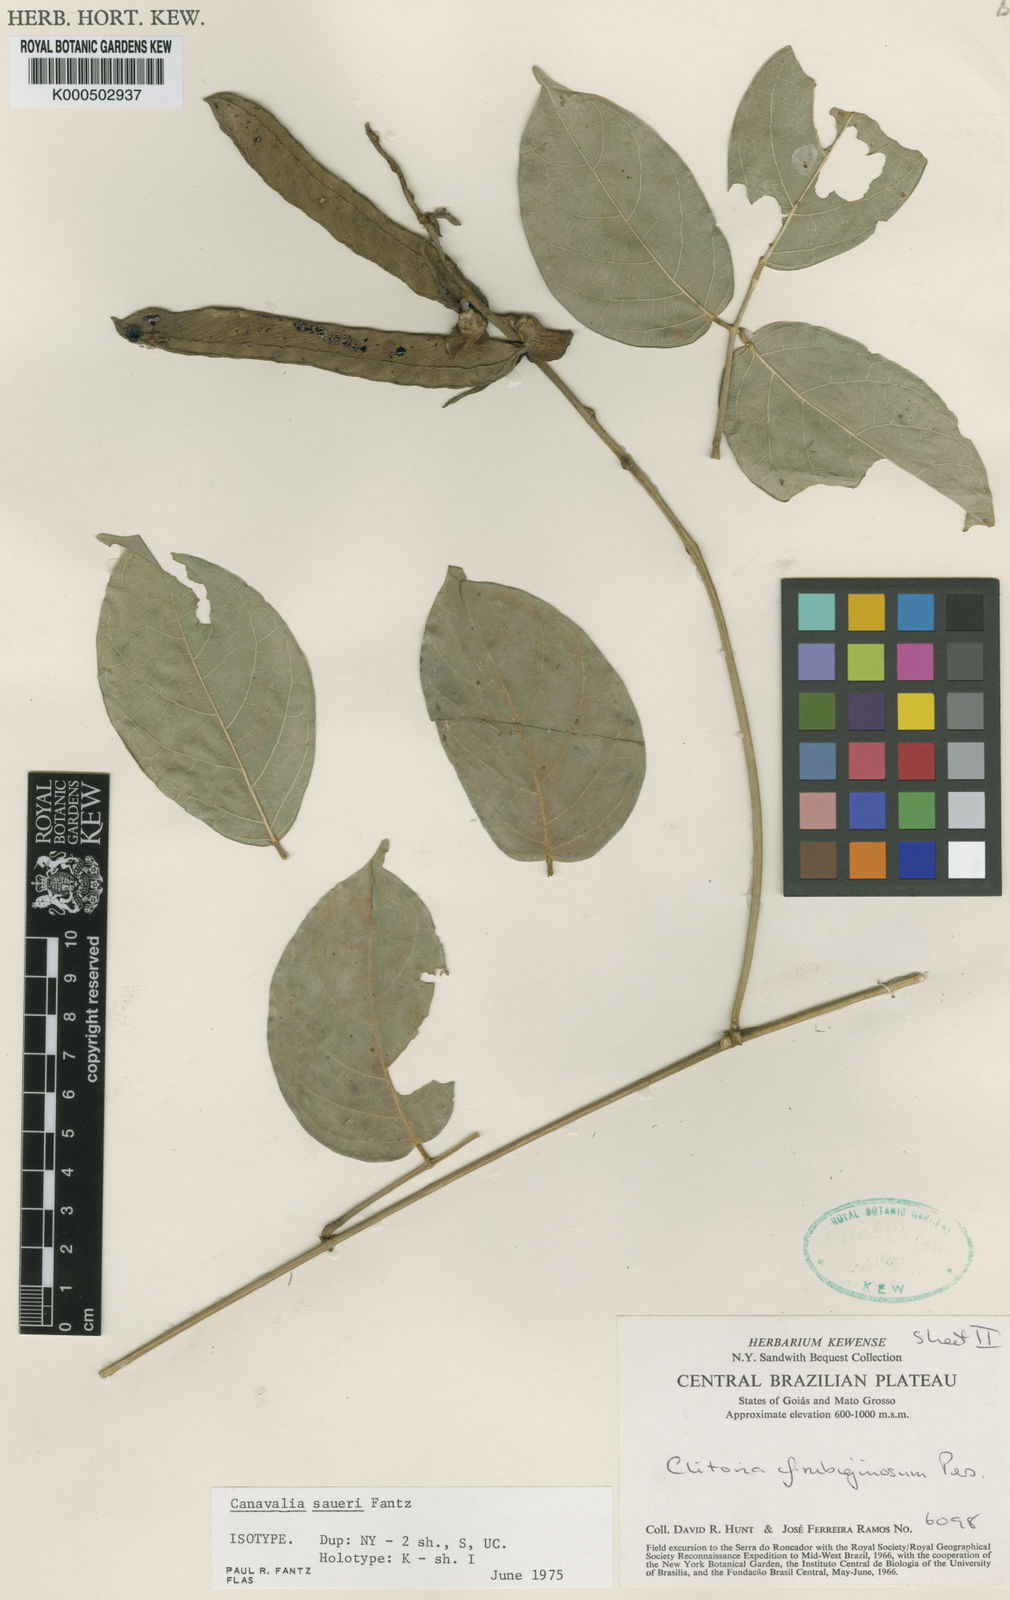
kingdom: Plantae
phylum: Tracheophyta
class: Magnoliopsida
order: Fabales
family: Fabaceae
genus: Canavalia
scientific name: Canavalia saueri
